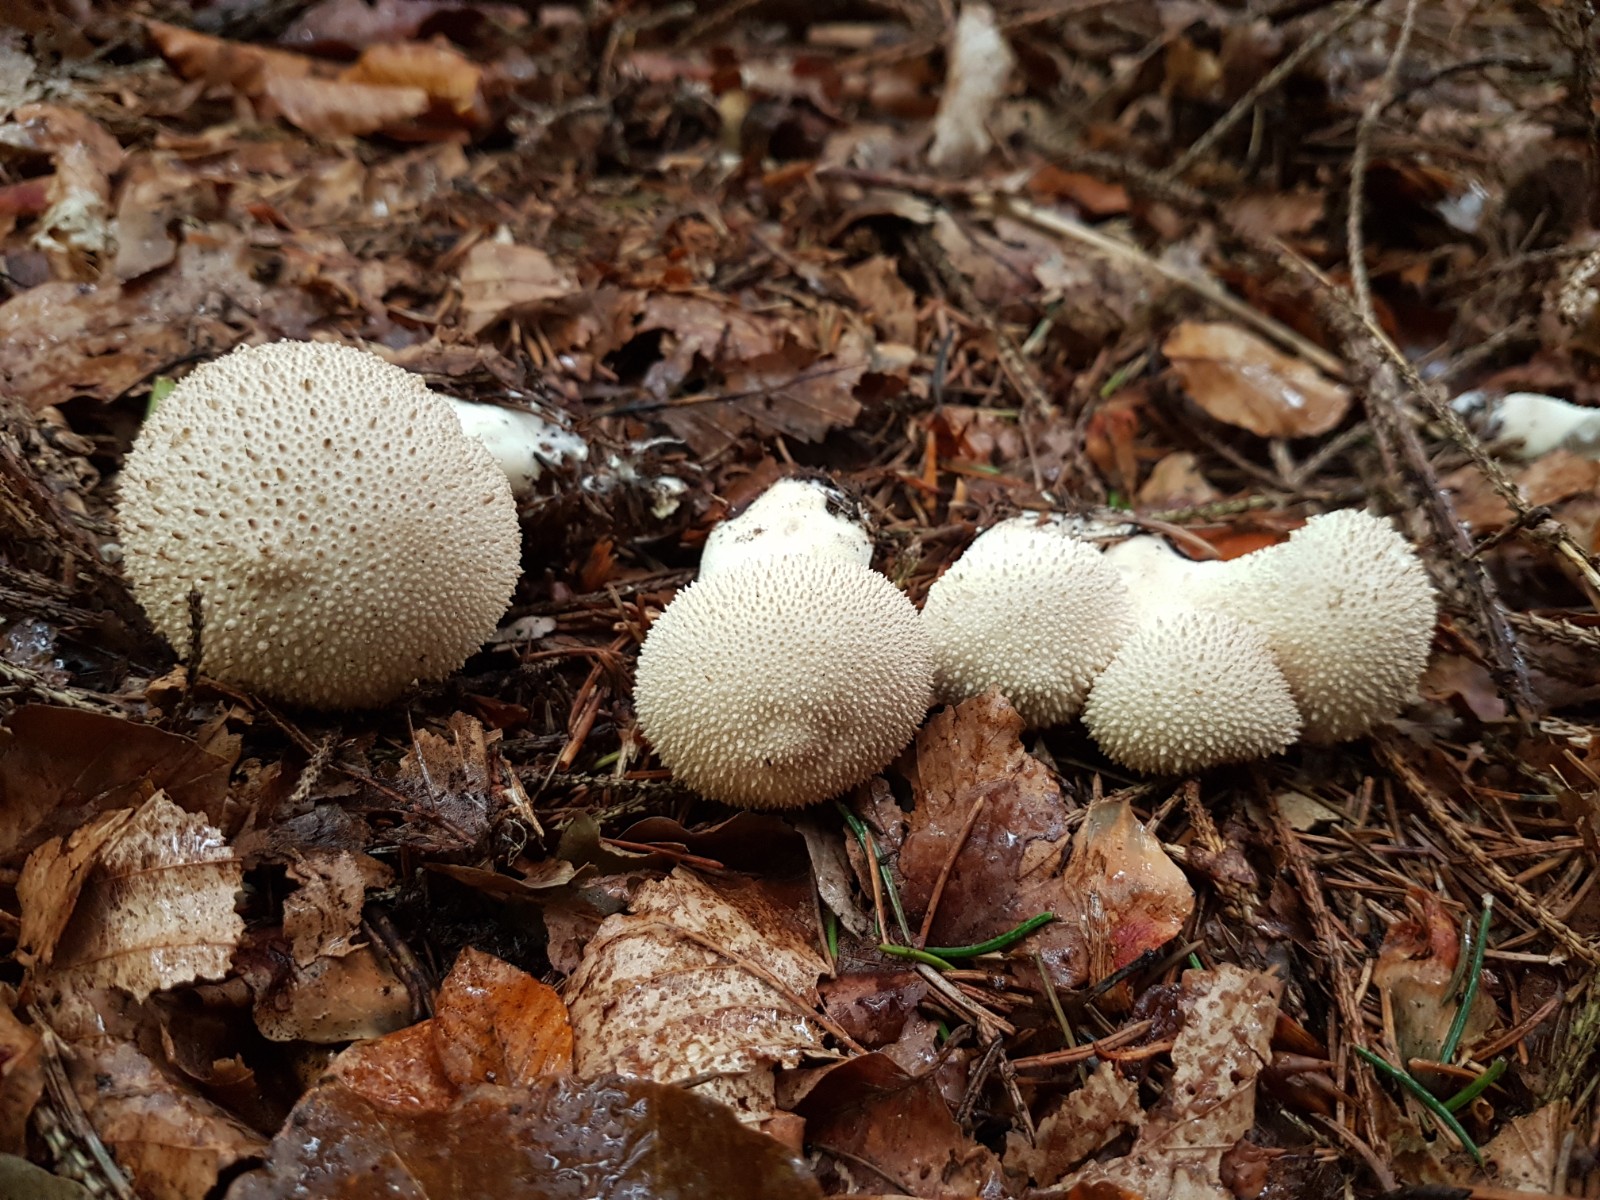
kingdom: Fungi
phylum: Basidiomycota
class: Agaricomycetes
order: Agaricales
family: Lycoperdaceae
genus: Lycoperdon
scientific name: Lycoperdon perlatum
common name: krystal-støvbold
